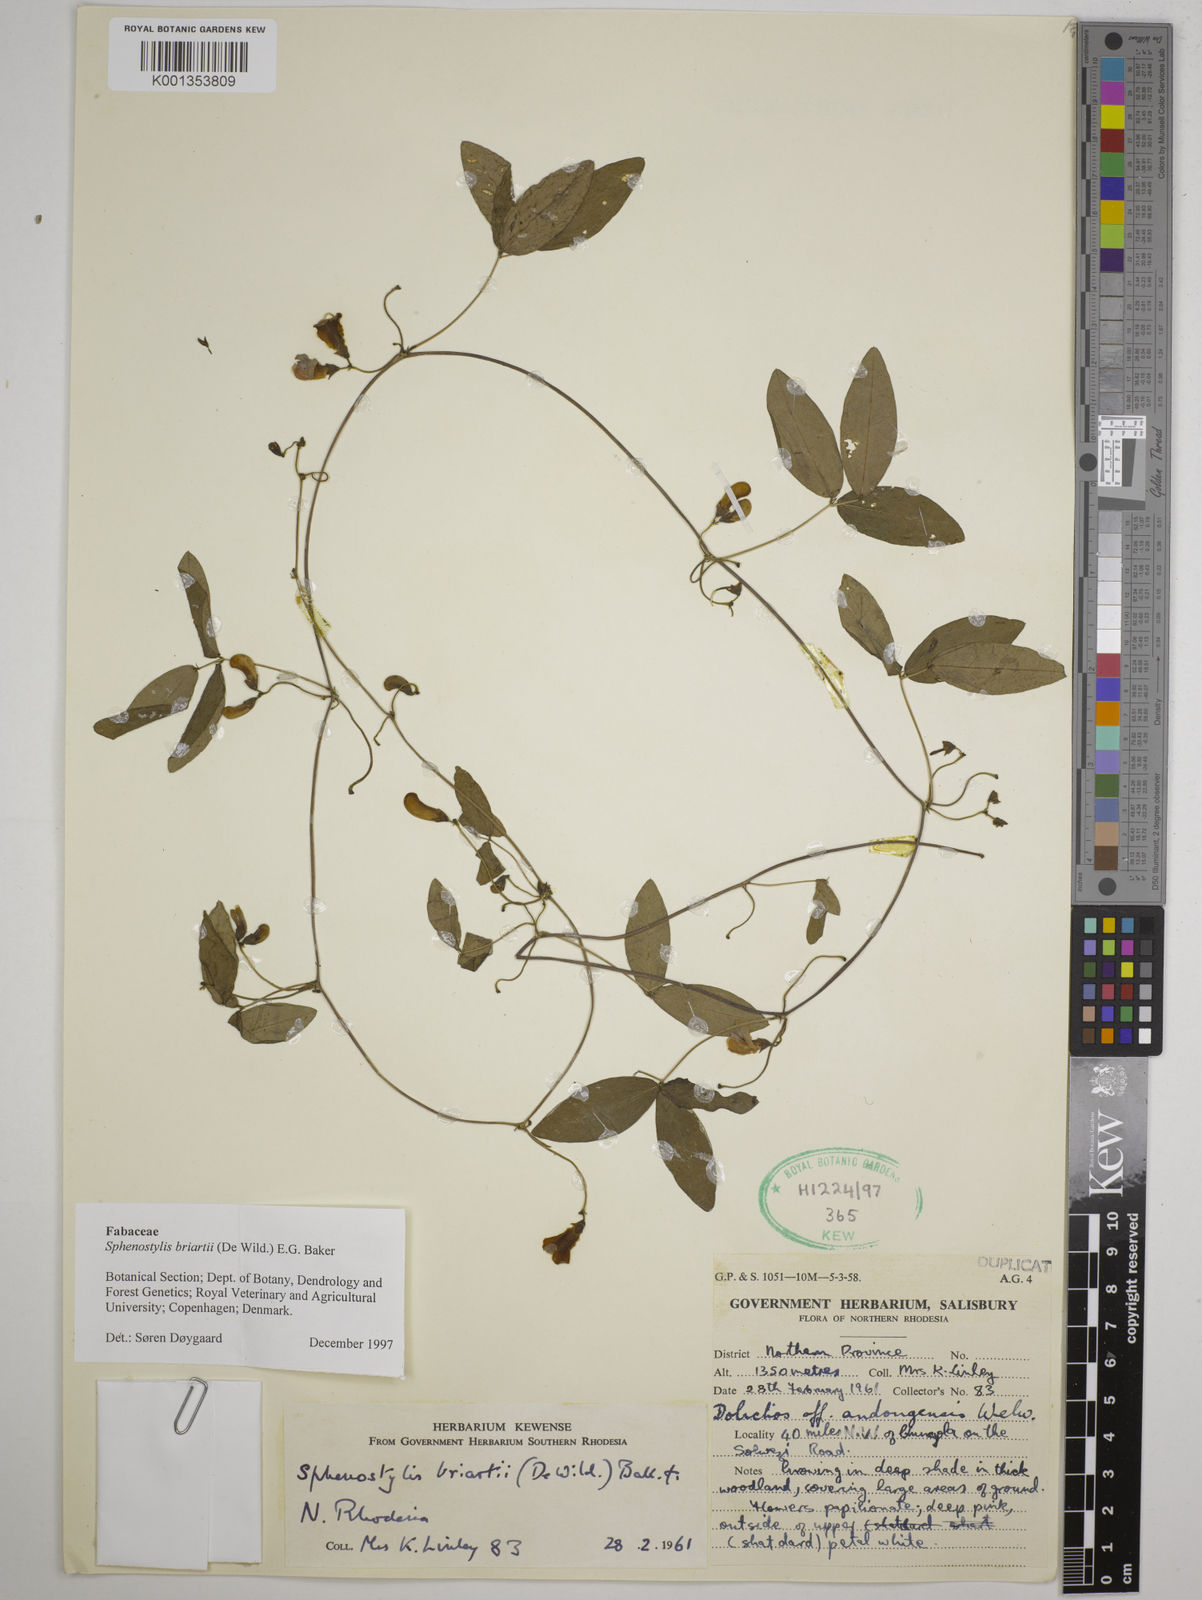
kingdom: Plantae
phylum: Tracheophyta
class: Magnoliopsida
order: Fabales
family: Fabaceae
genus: Sphenostylis
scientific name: Sphenostylis briartii
